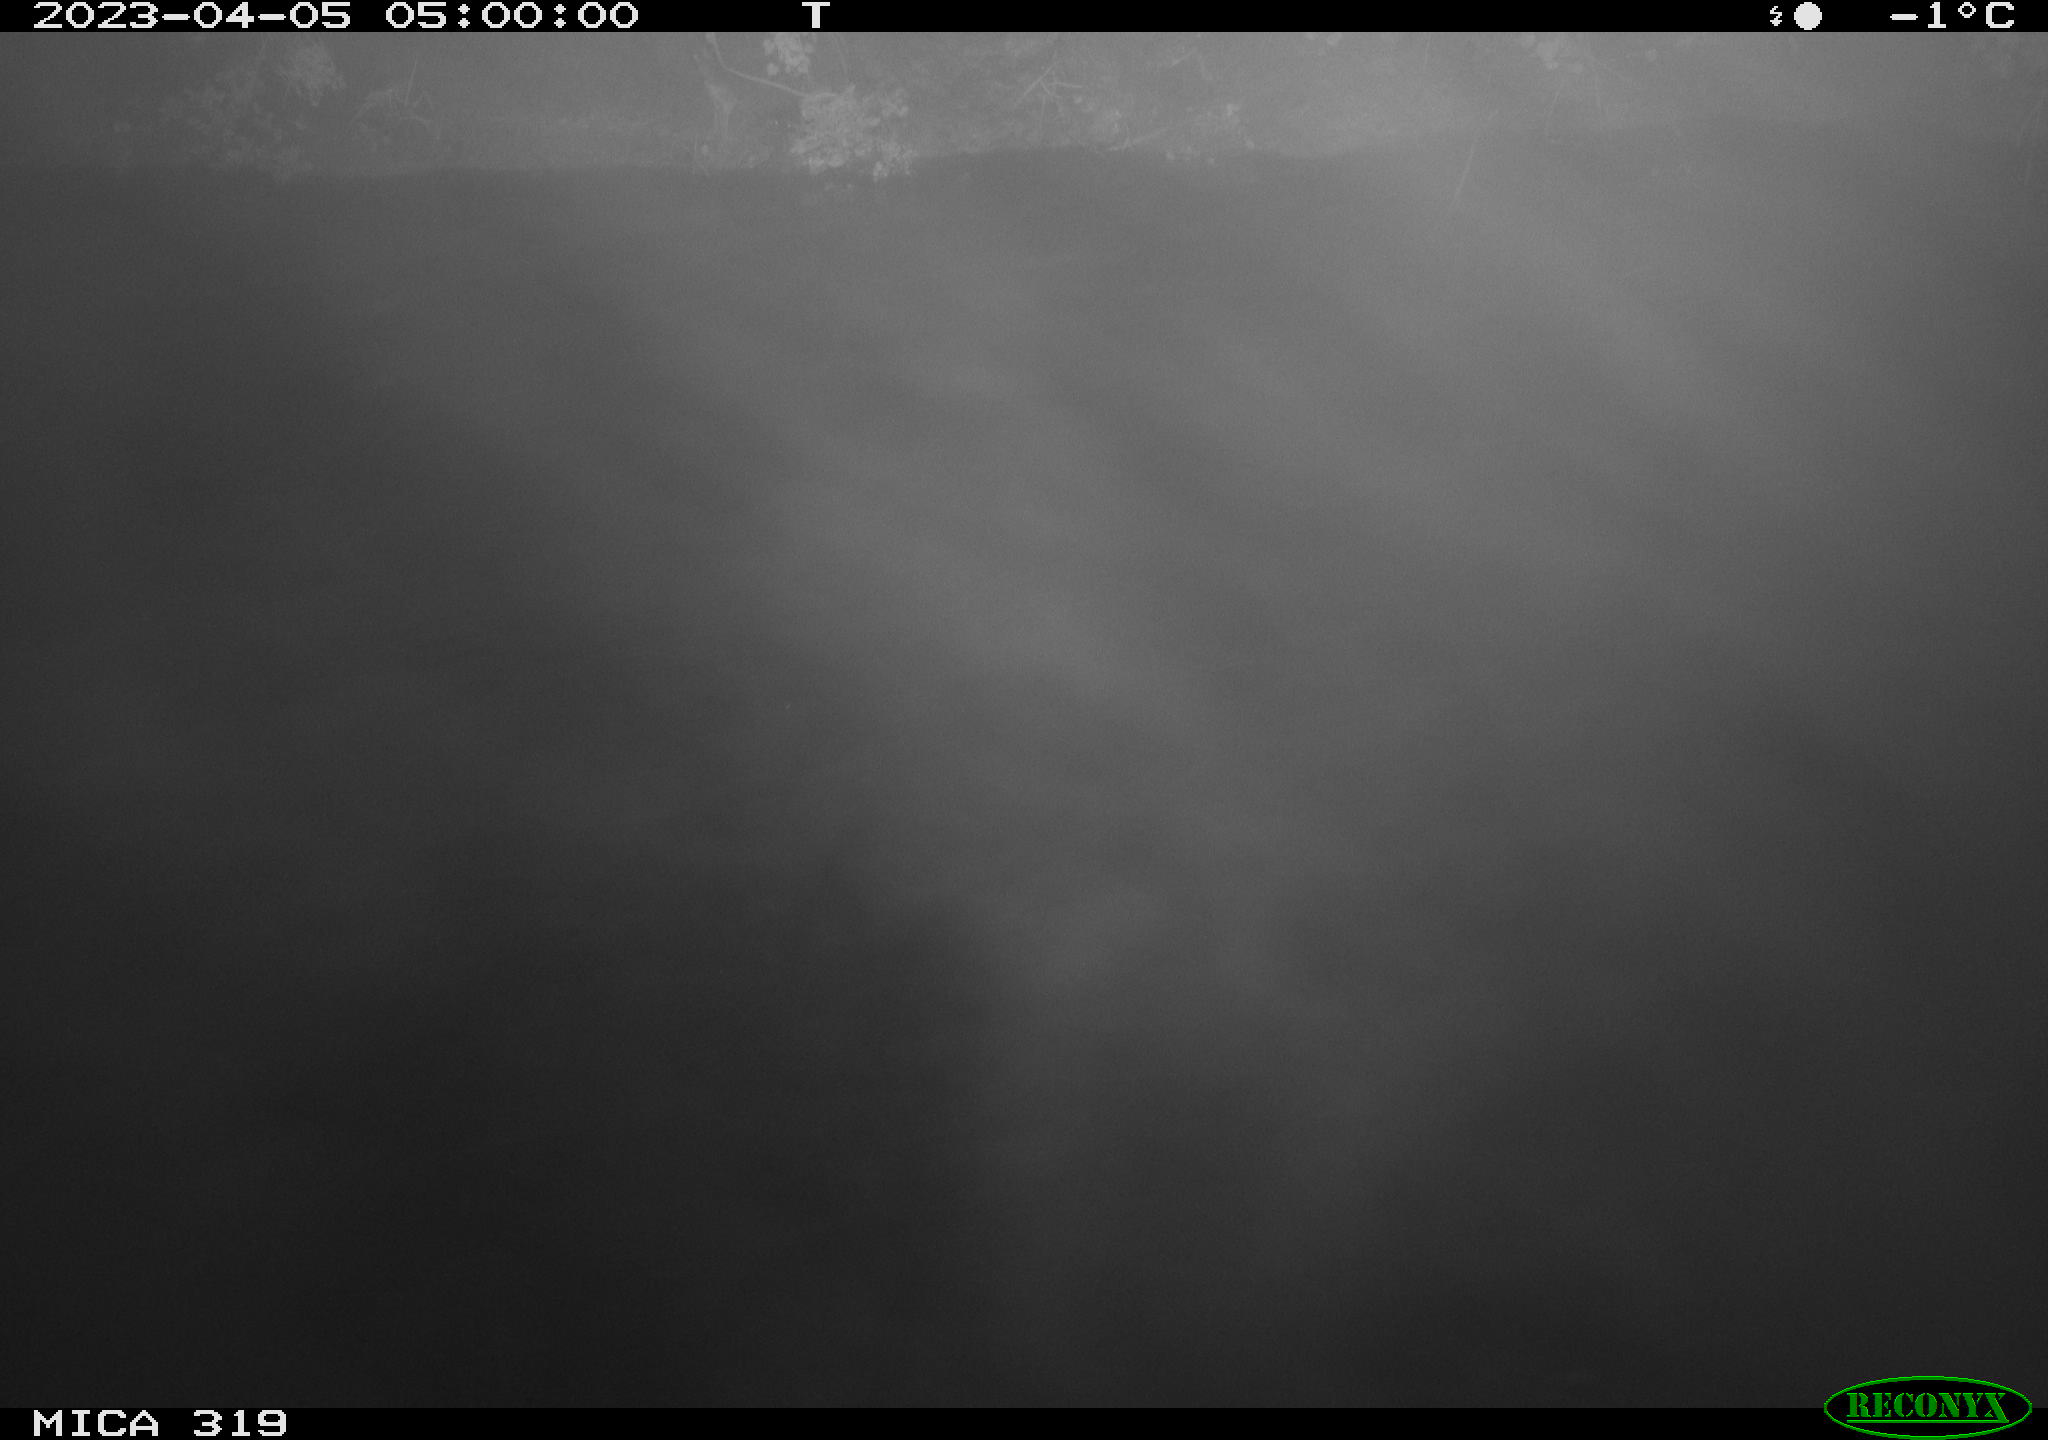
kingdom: Animalia
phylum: Chordata
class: Mammalia
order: Rodentia
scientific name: Rodentia
